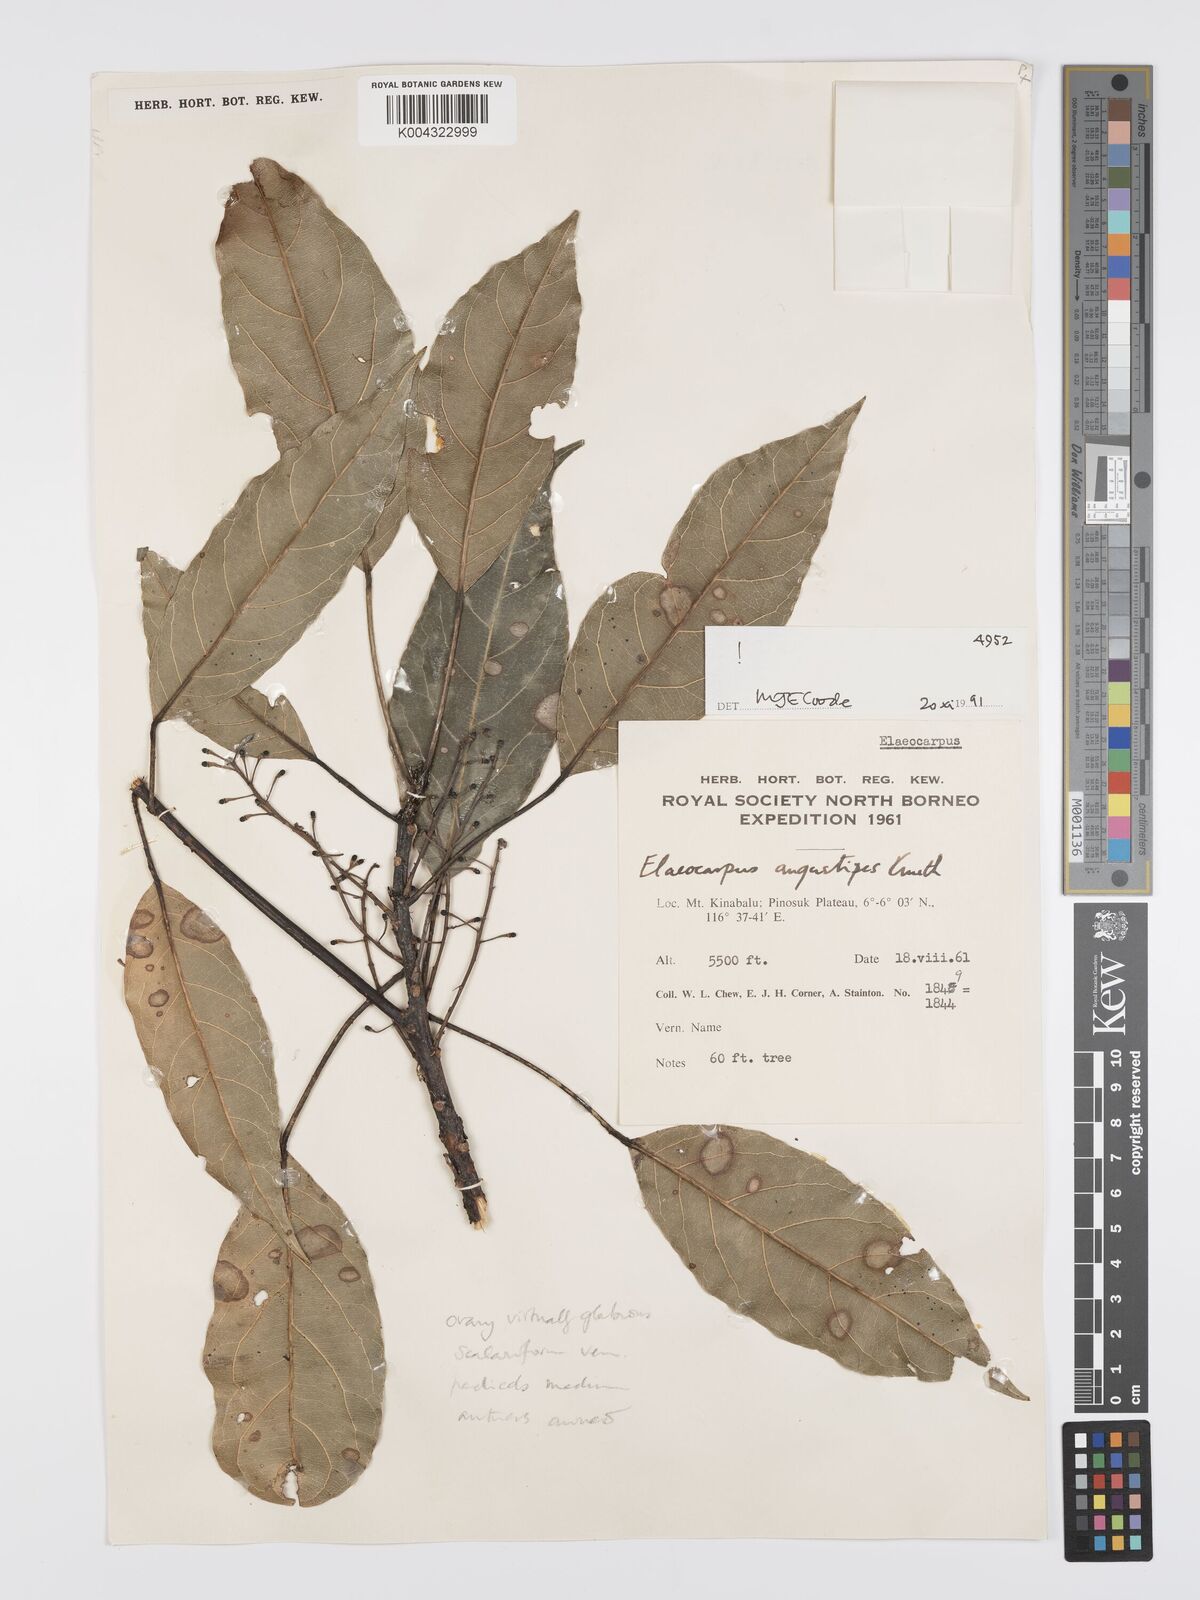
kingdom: Plantae
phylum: Tracheophyta
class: Magnoliopsida
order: Oxalidales
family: Elaeocarpaceae
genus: Elaeocarpus
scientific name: Elaeocarpus angustipes
